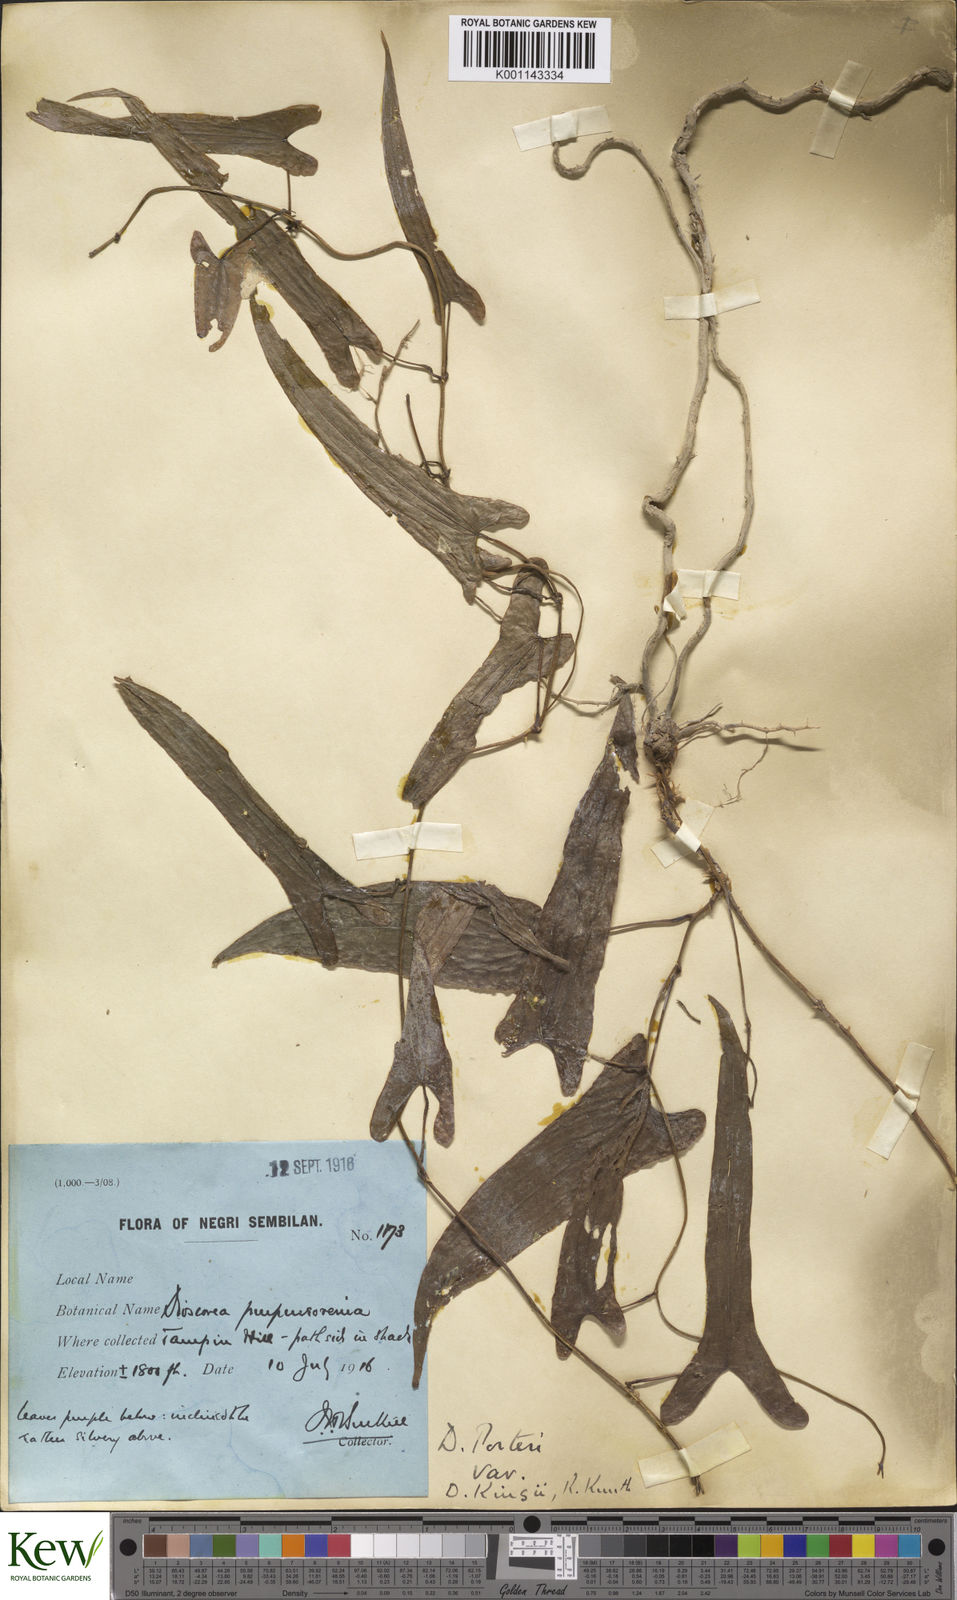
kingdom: Plantae
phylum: Tracheophyta
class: Liliopsida
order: Dioscoreales
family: Dioscoreaceae
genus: Dioscorea
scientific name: Dioscorea kingii
